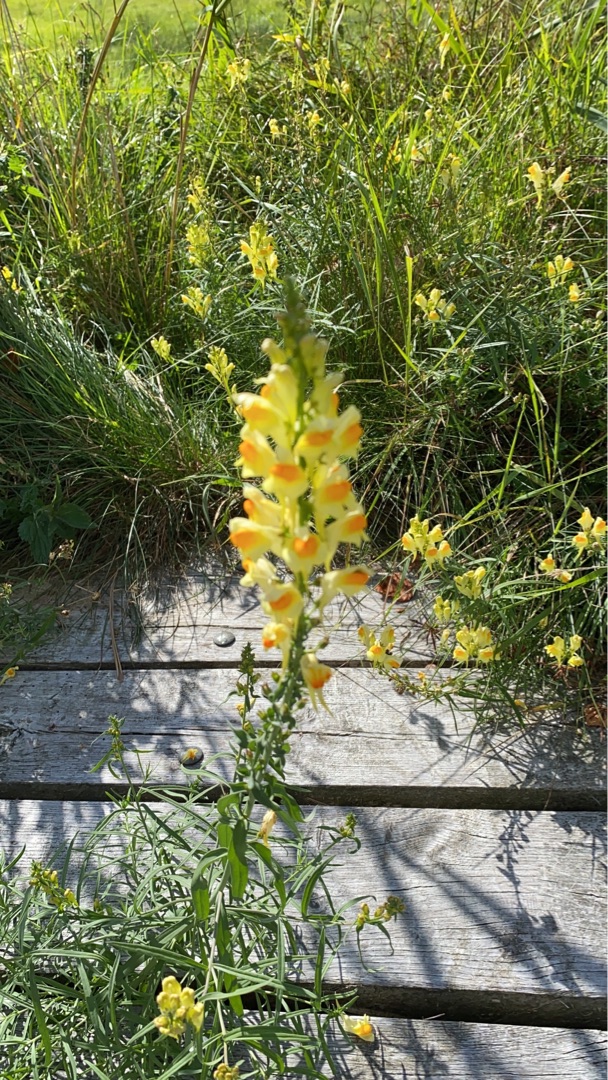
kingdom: Plantae
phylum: Tracheophyta
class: Magnoliopsida
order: Lamiales
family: Plantaginaceae
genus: Linaria
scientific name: Linaria vulgaris
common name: Almindelig torskemund
